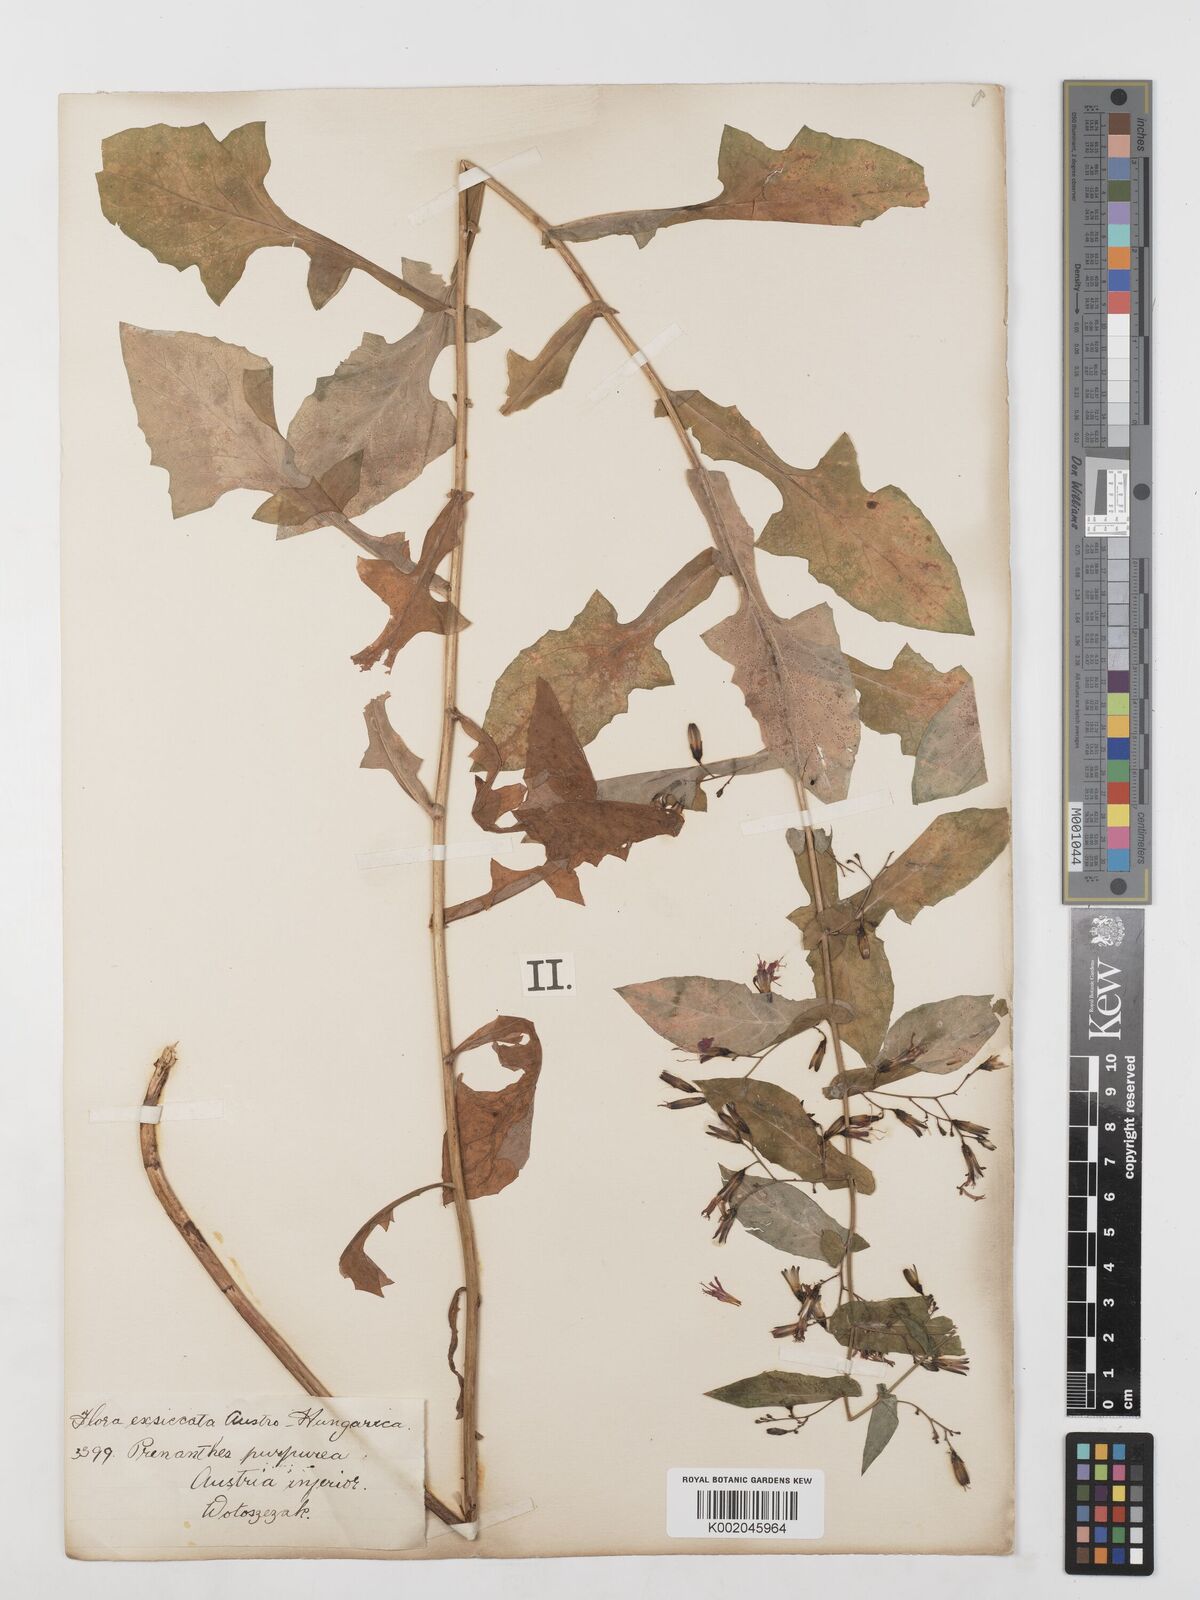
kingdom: Plantae
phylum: Tracheophyta
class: Magnoliopsida
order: Asterales
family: Asteraceae
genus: Prenanthes
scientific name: Prenanthes purpurea
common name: Purple lettuce
